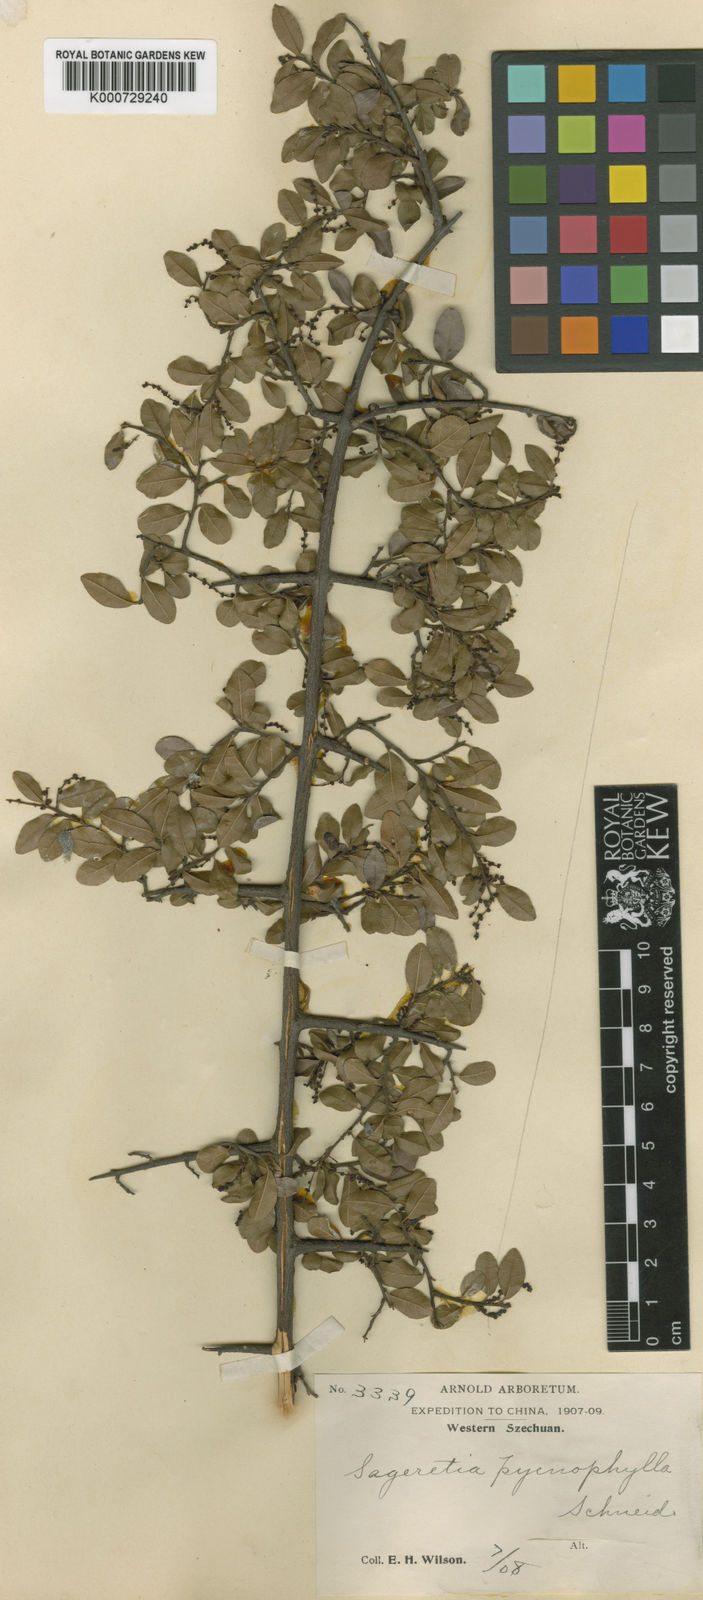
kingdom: Plantae
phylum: Tracheophyta
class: Magnoliopsida
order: Rosales
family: Rhamnaceae
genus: Sageretia
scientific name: Sageretia pycnophylla
